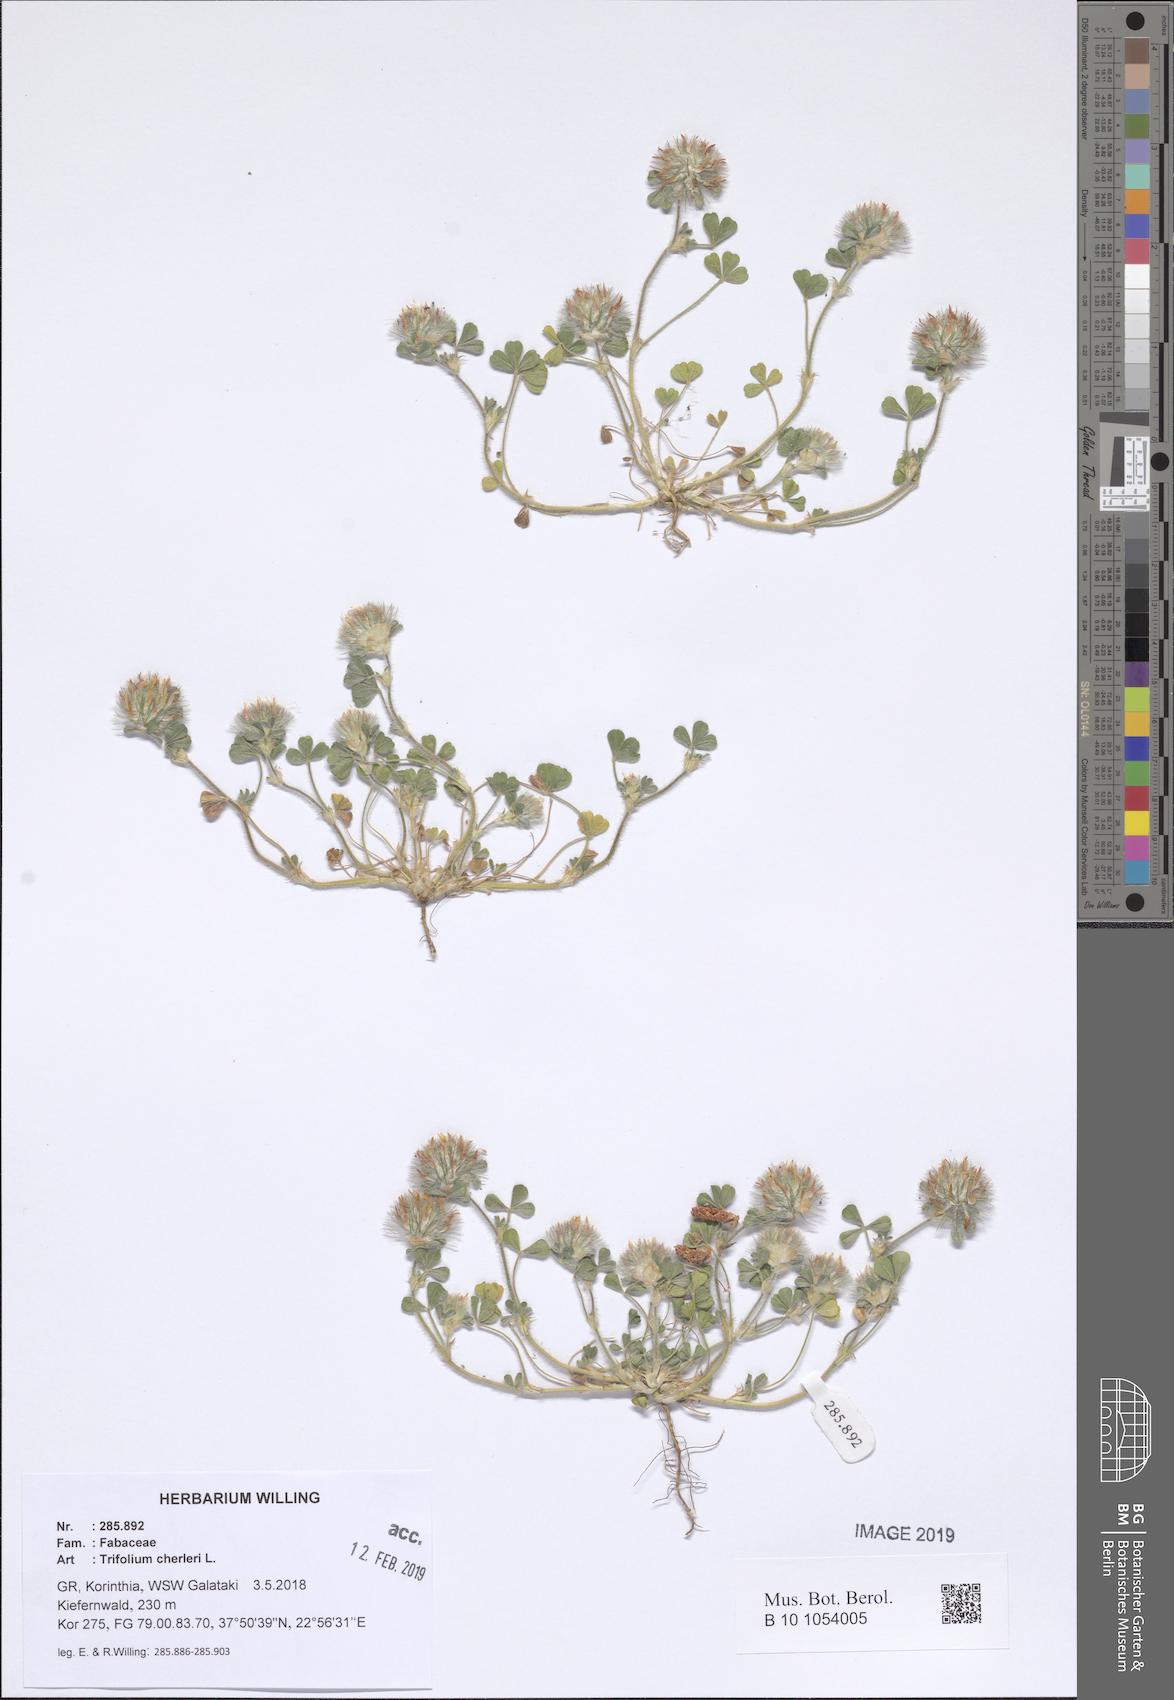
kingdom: Plantae
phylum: Tracheophyta
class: Magnoliopsida
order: Fabales
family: Fabaceae
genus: Trifolium
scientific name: Trifolium cherleri
